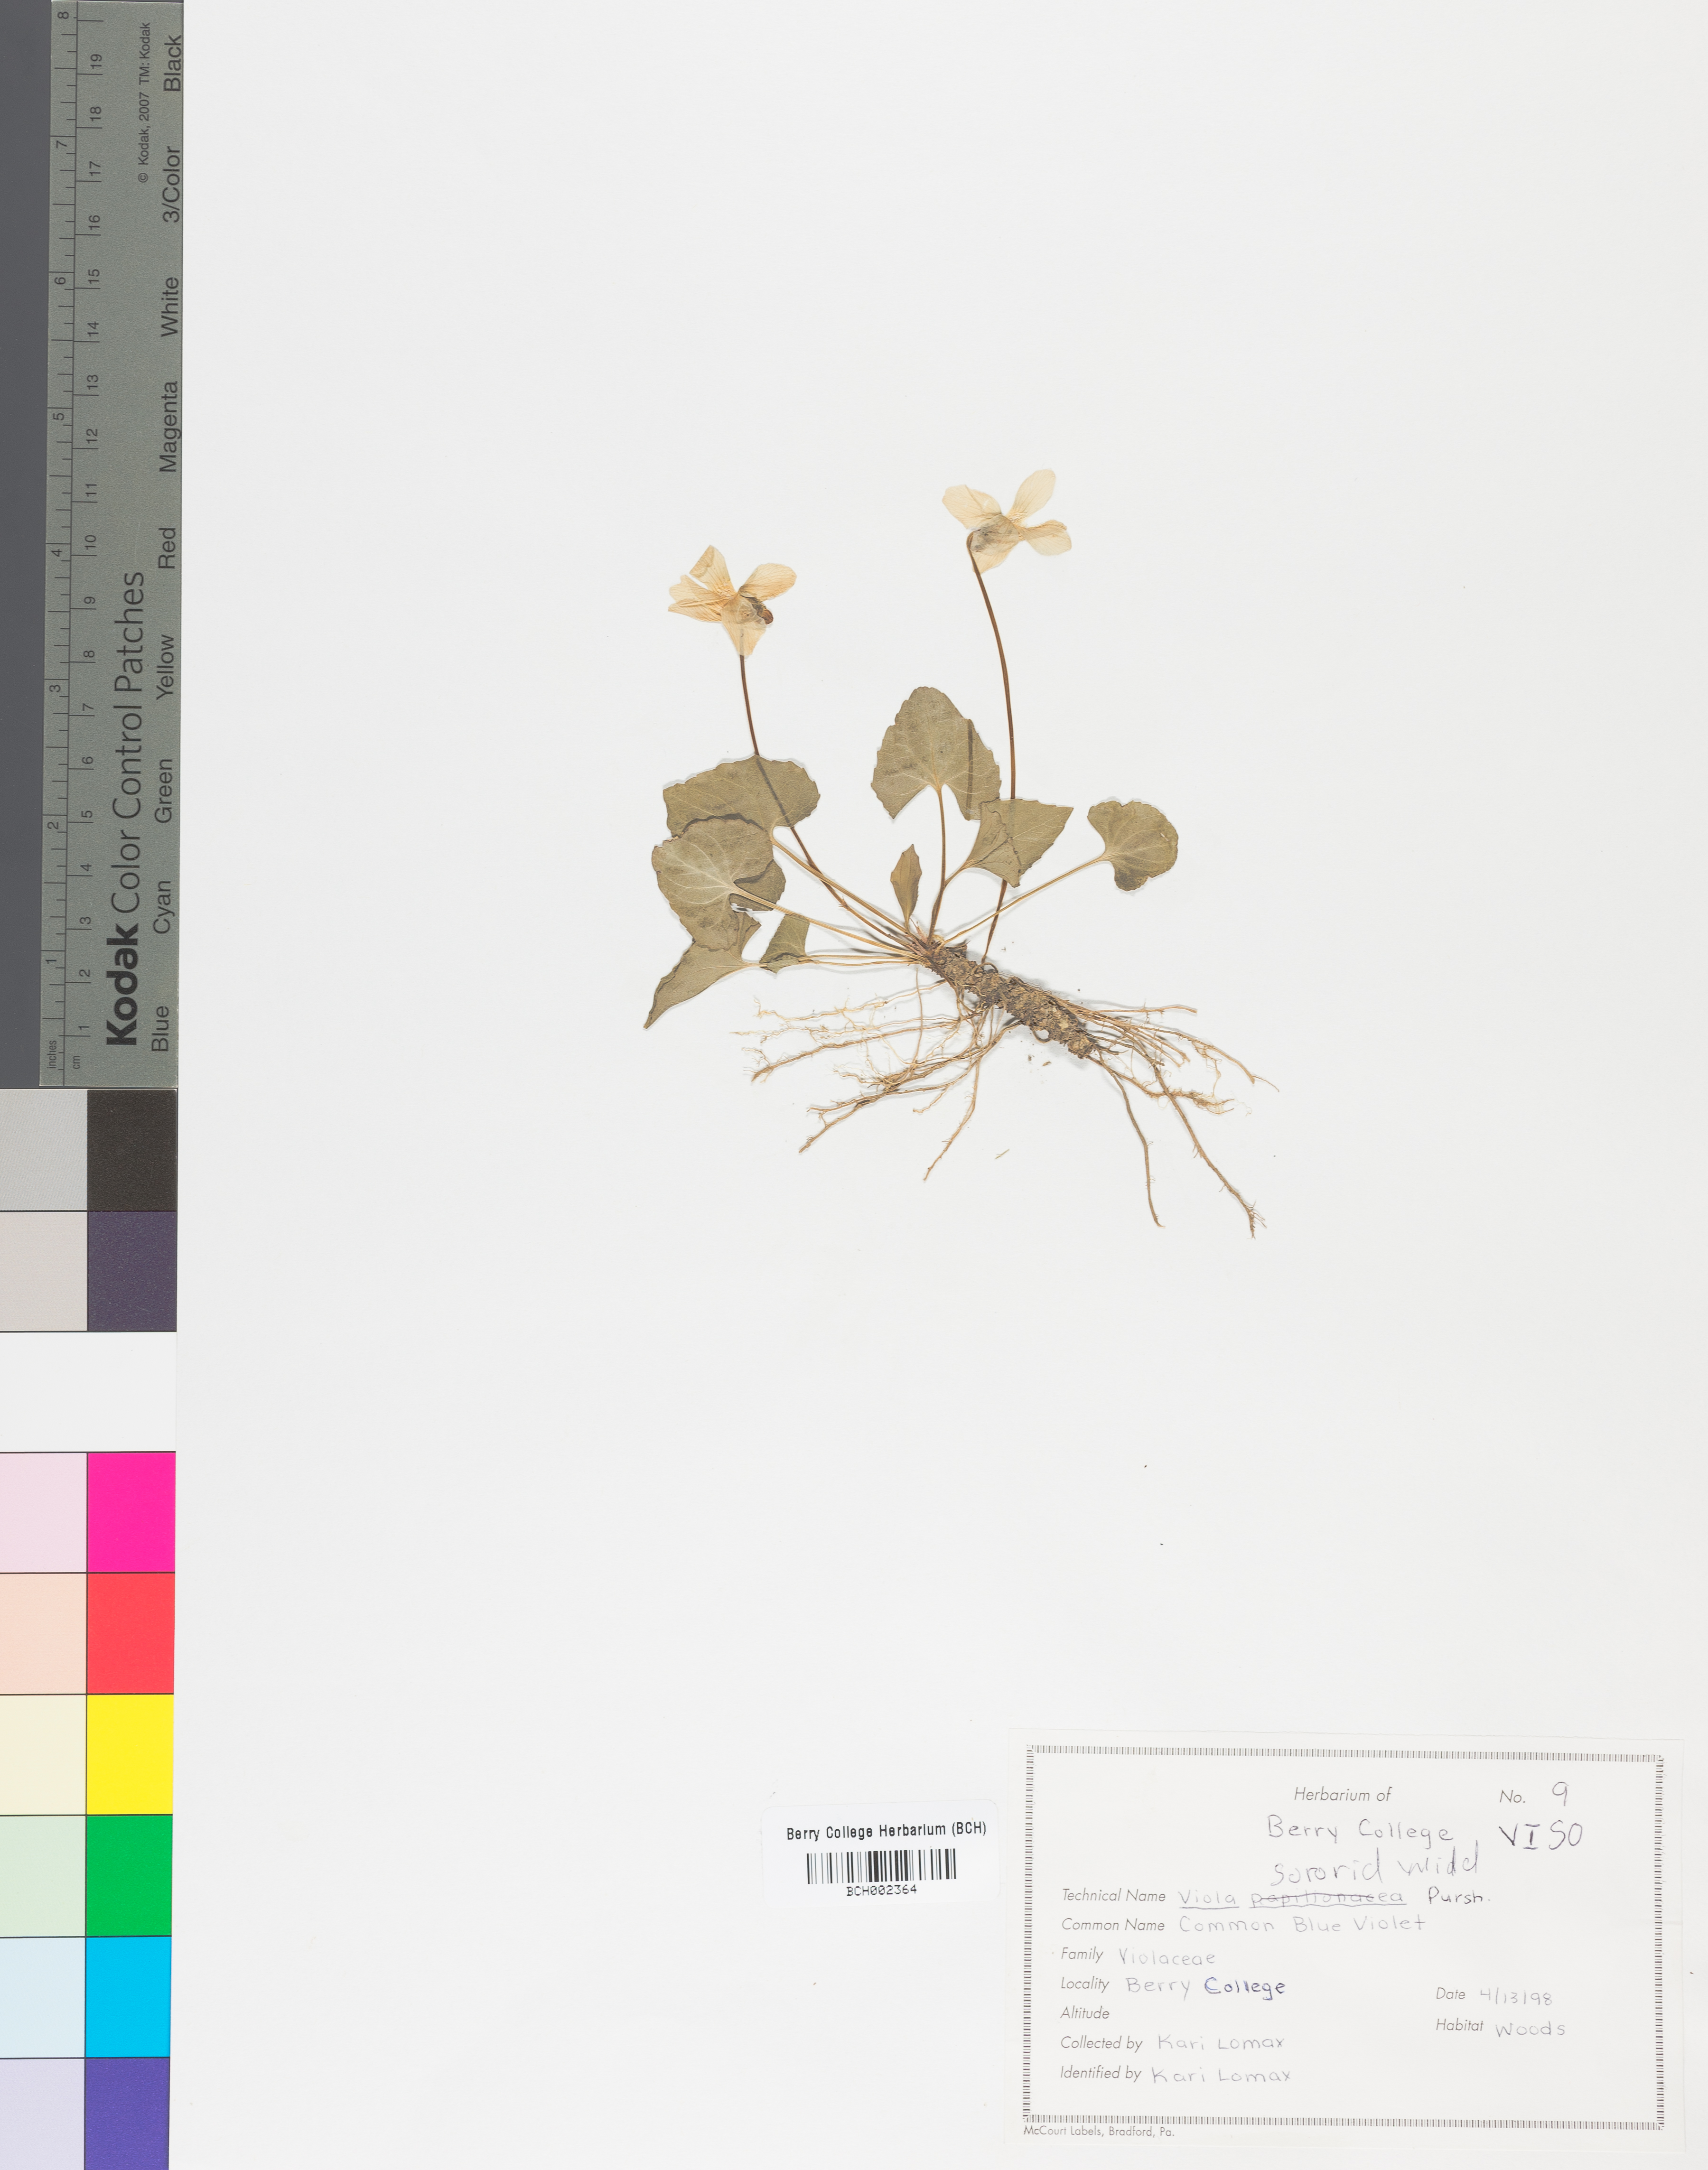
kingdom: Plantae
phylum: Tracheophyta
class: Magnoliopsida
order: Malpighiales
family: Violaceae
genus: Viola
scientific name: Viola sororia
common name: Dooryard violet
